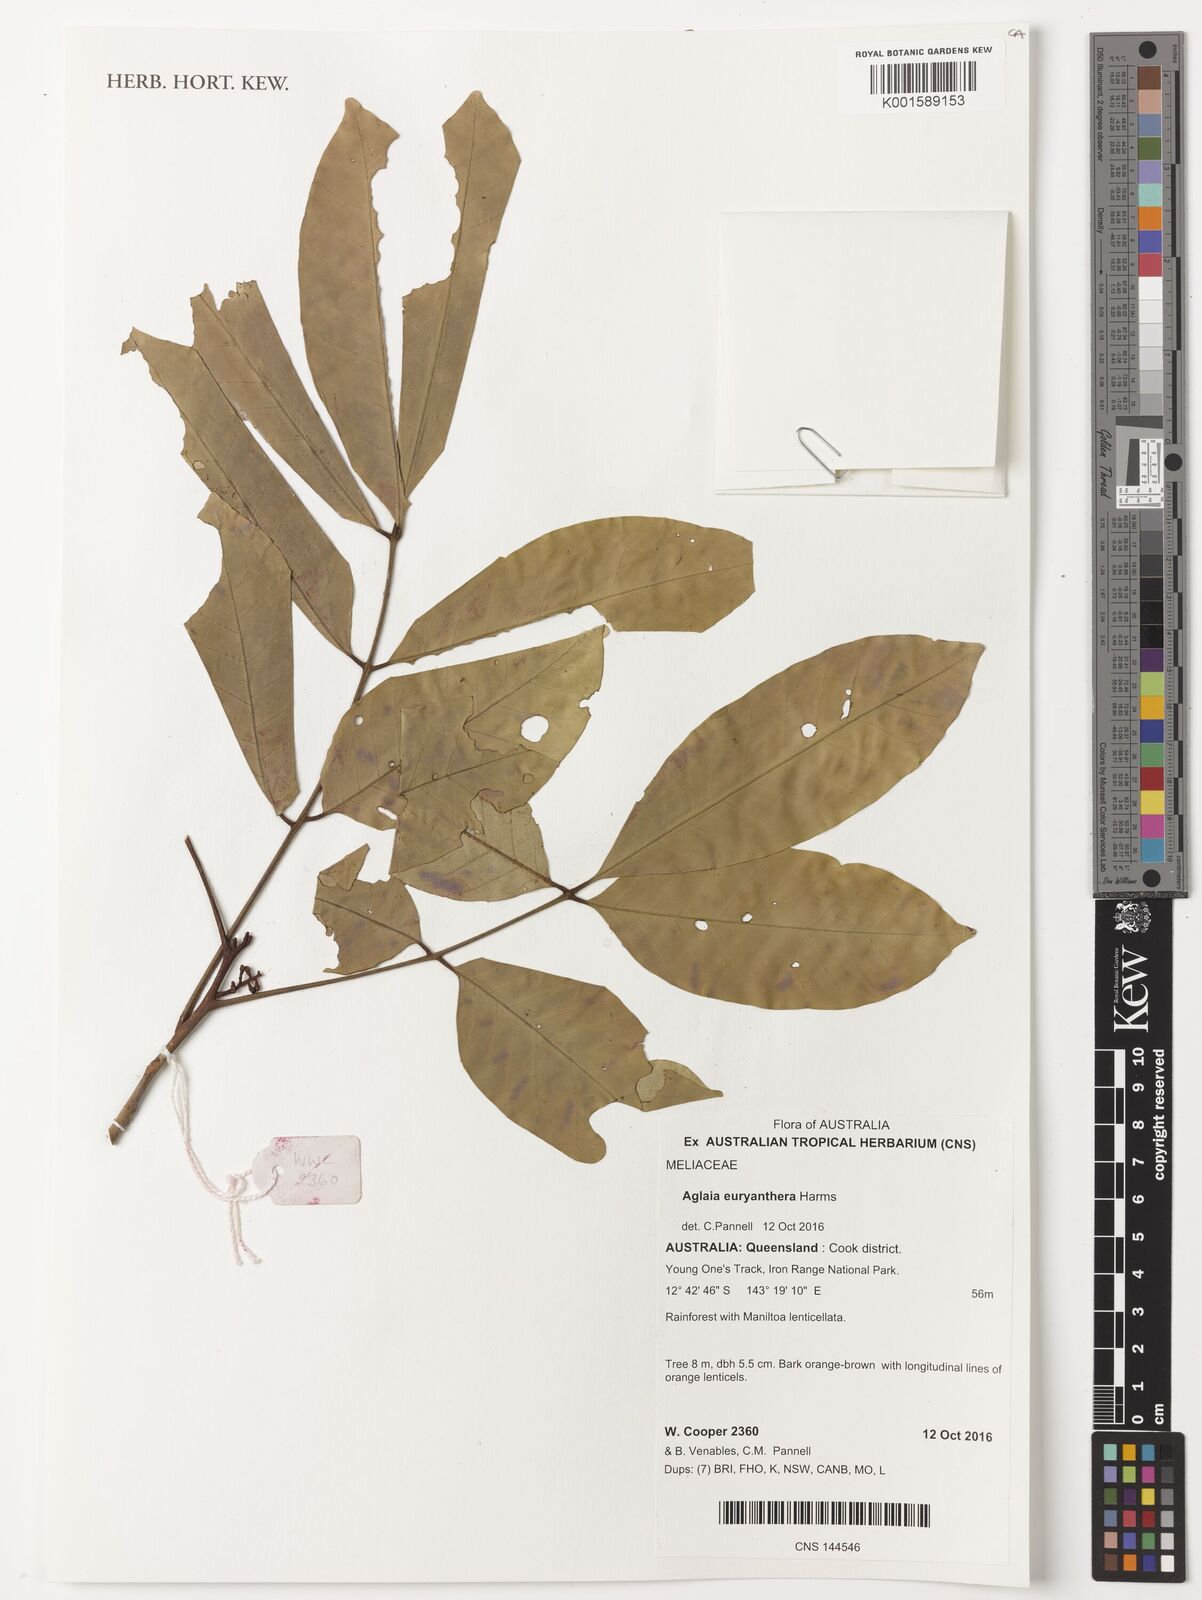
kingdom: Plantae
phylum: Tracheophyta
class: Magnoliopsida
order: Sapindales
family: Meliaceae
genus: Aglaia
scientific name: Aglaia euryanthera
